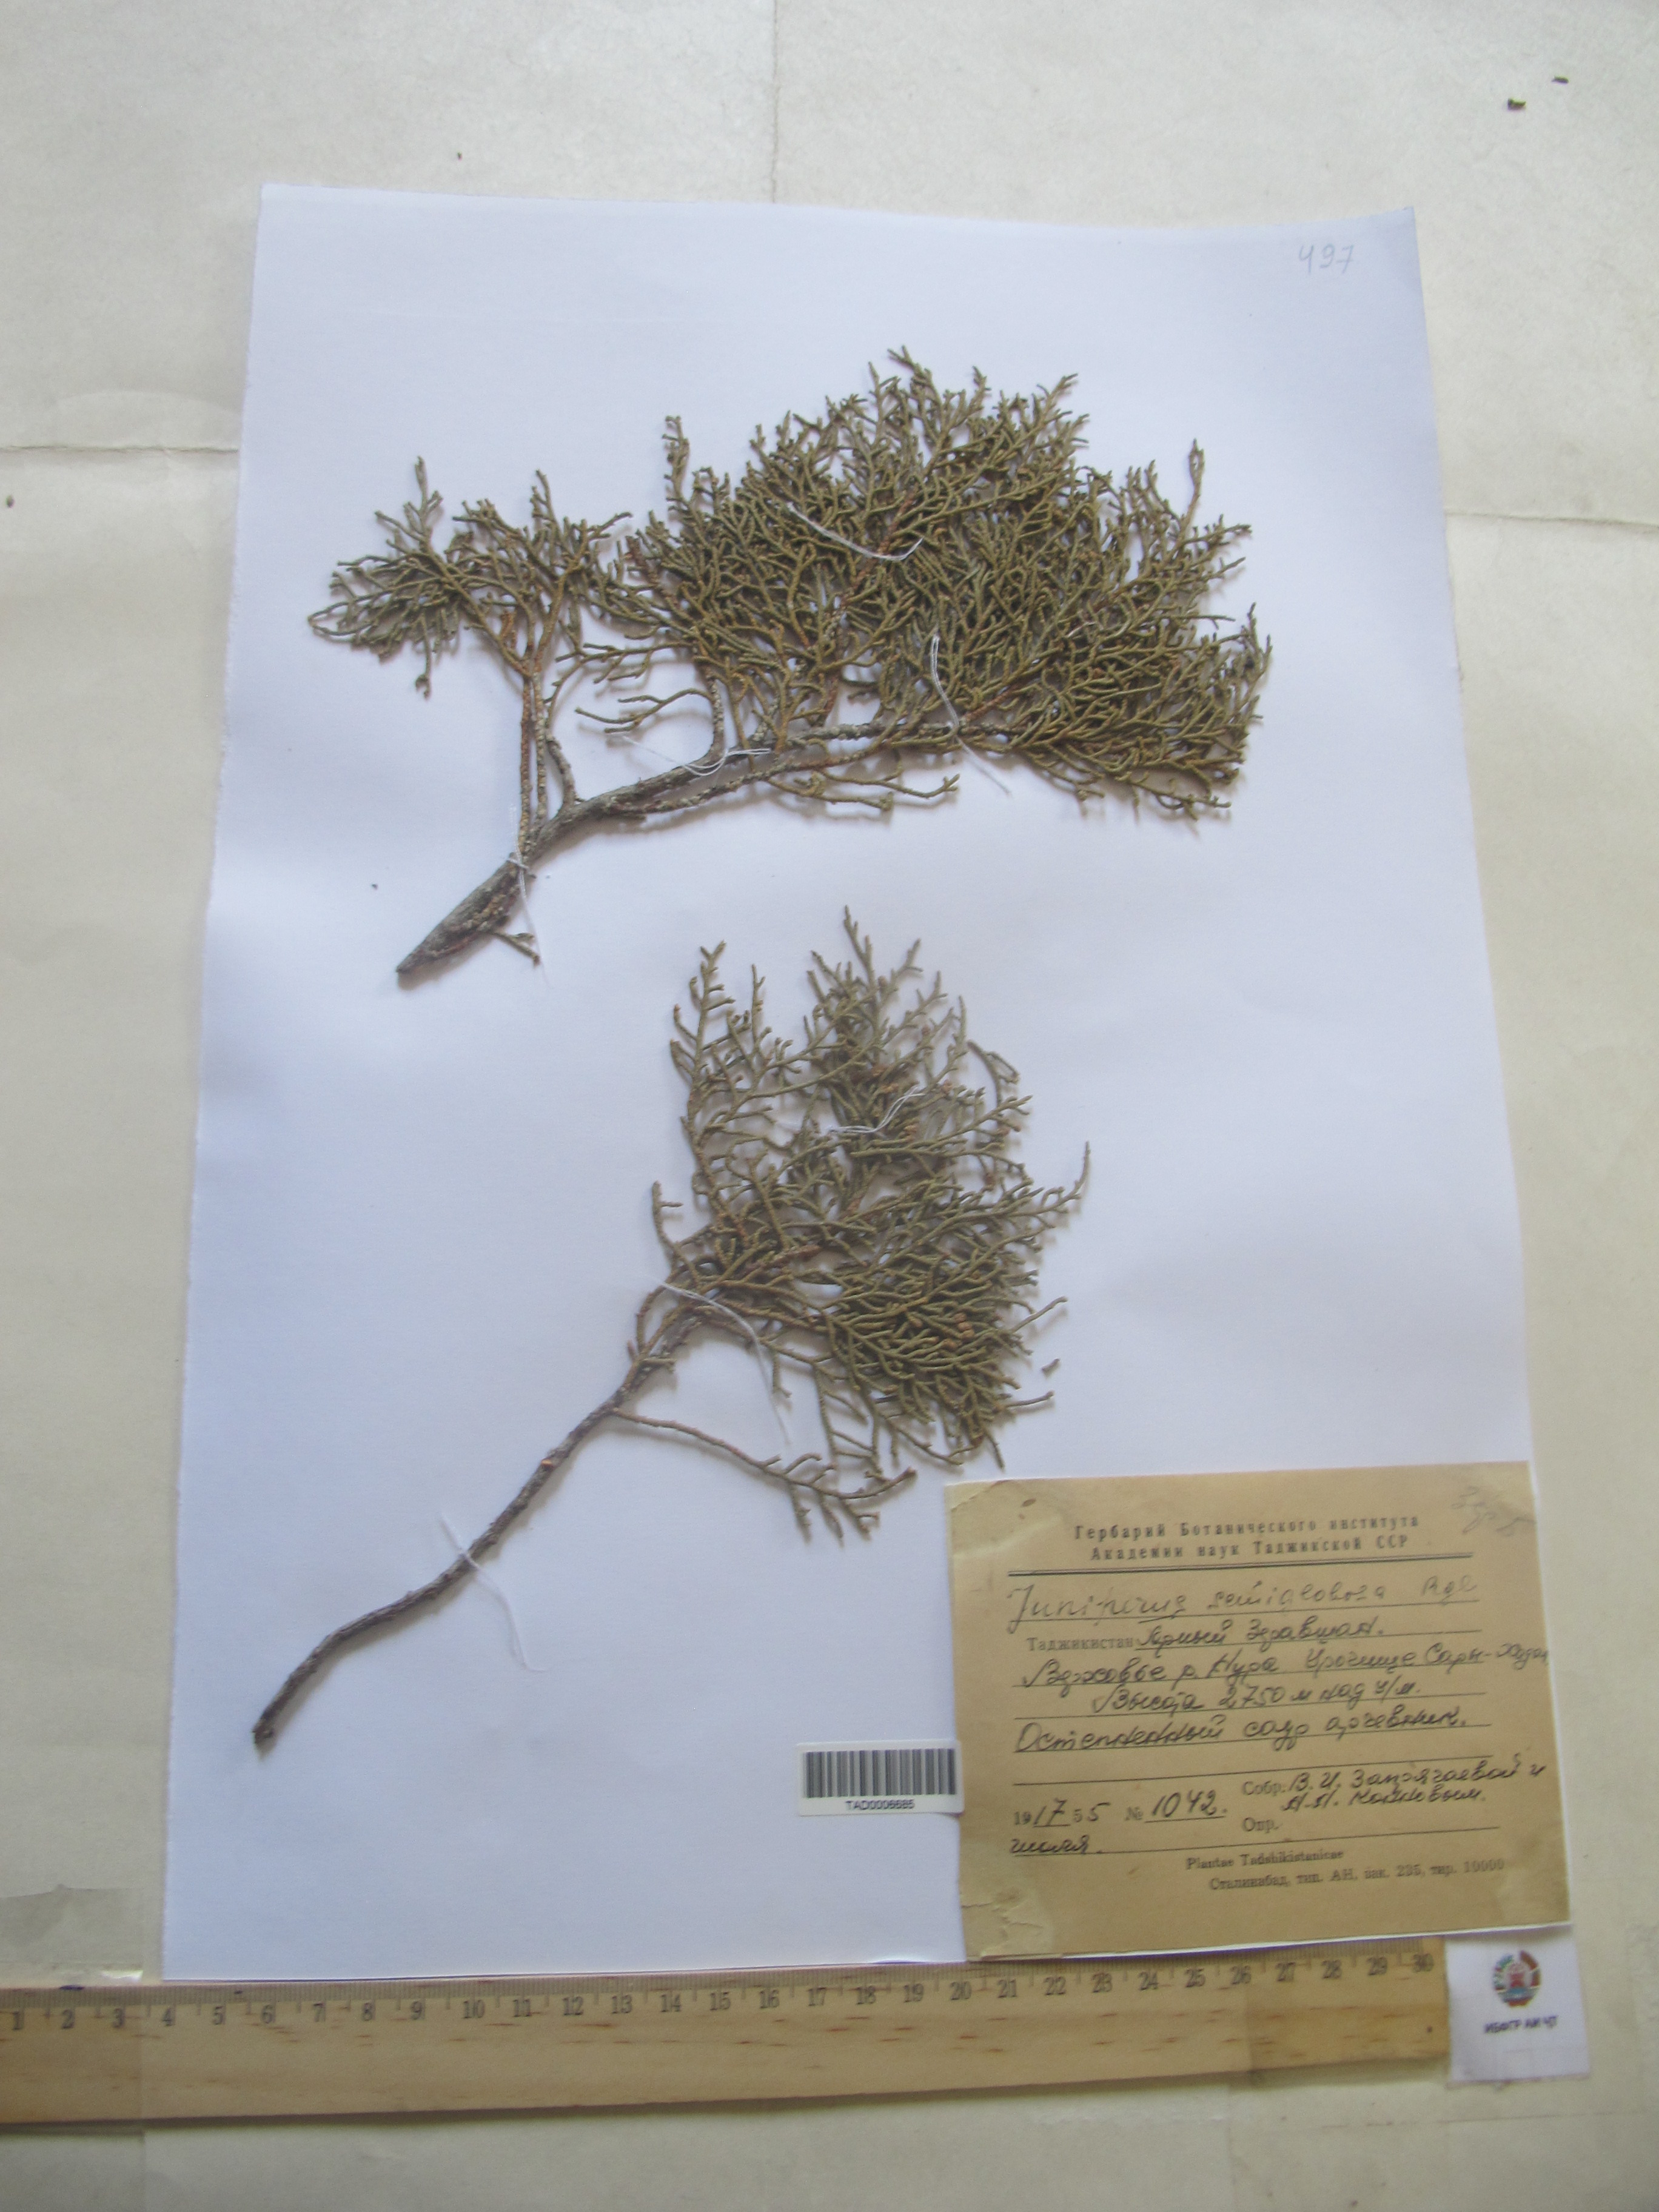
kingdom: Plantae
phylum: Tracheophyta
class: Pinopsida
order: Pinales
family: Cupressaceae
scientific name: Cupressaceae
